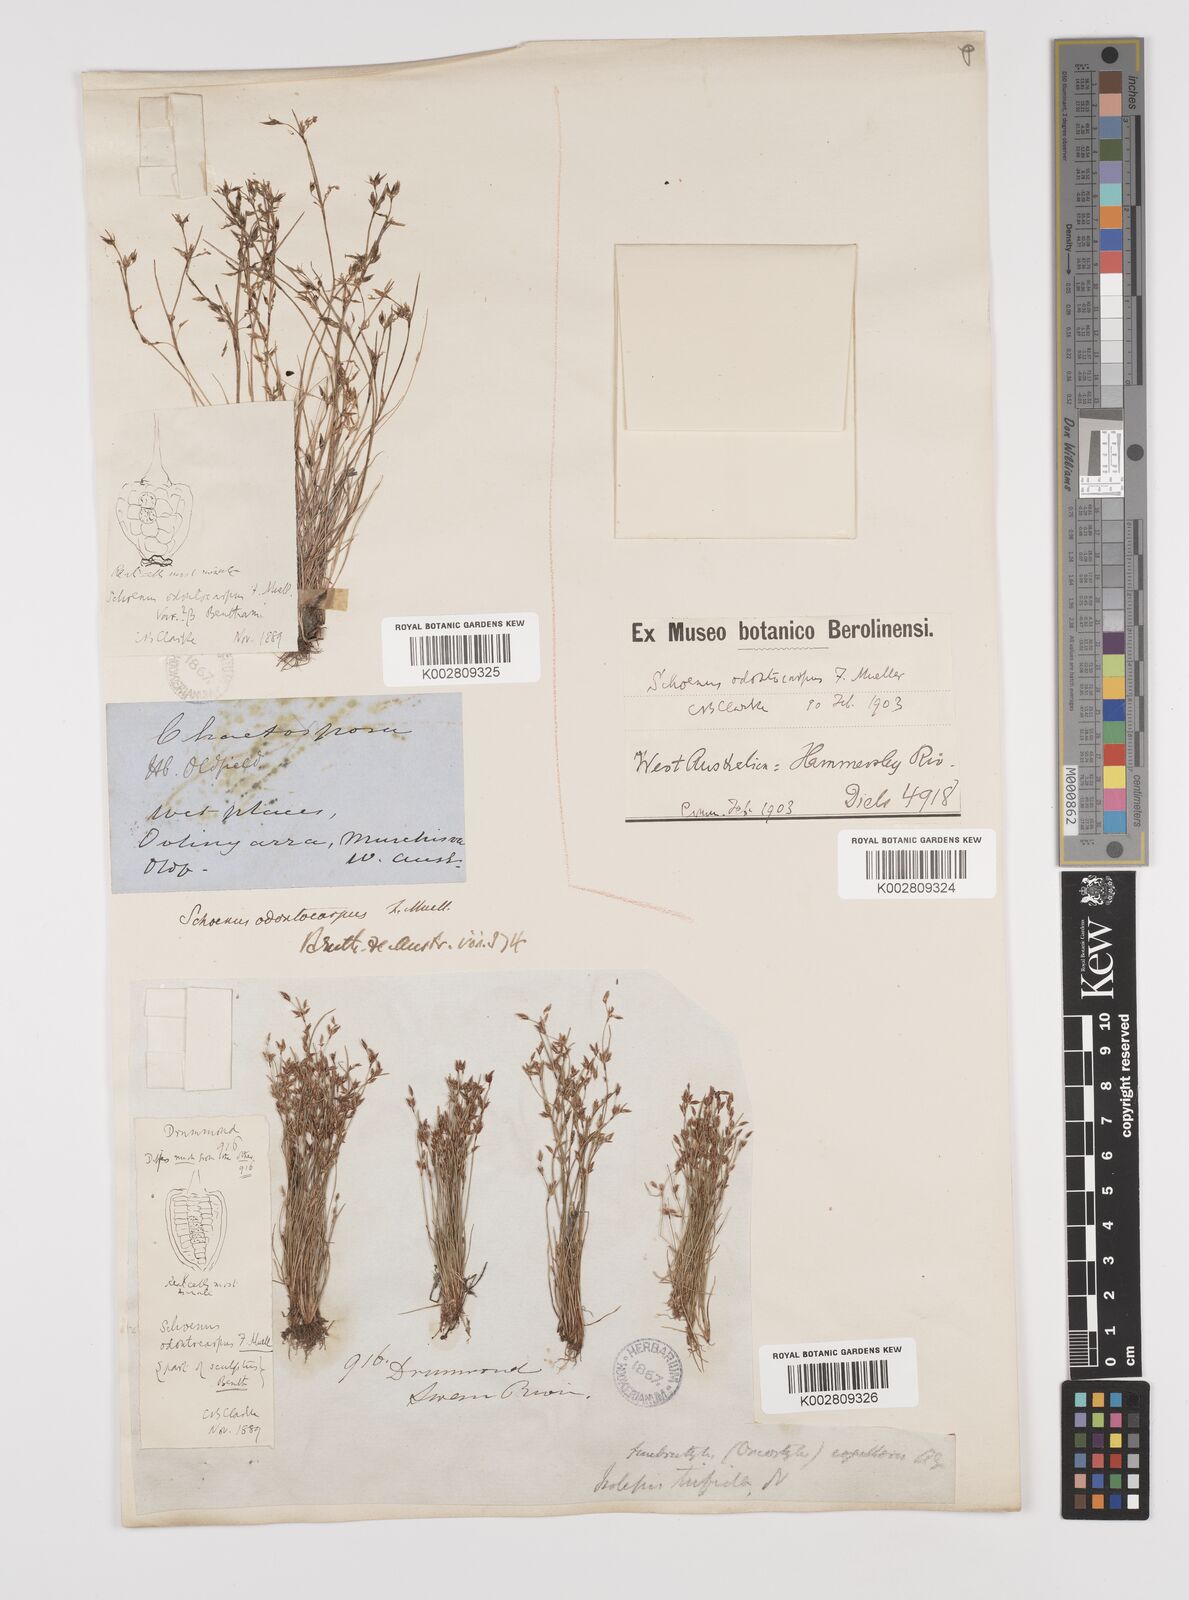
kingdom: Plantae
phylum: Tracheophyta
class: Liliopsida
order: Poales
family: Cyperaceae
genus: Schoenus
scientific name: Schoenus odontocarpus
